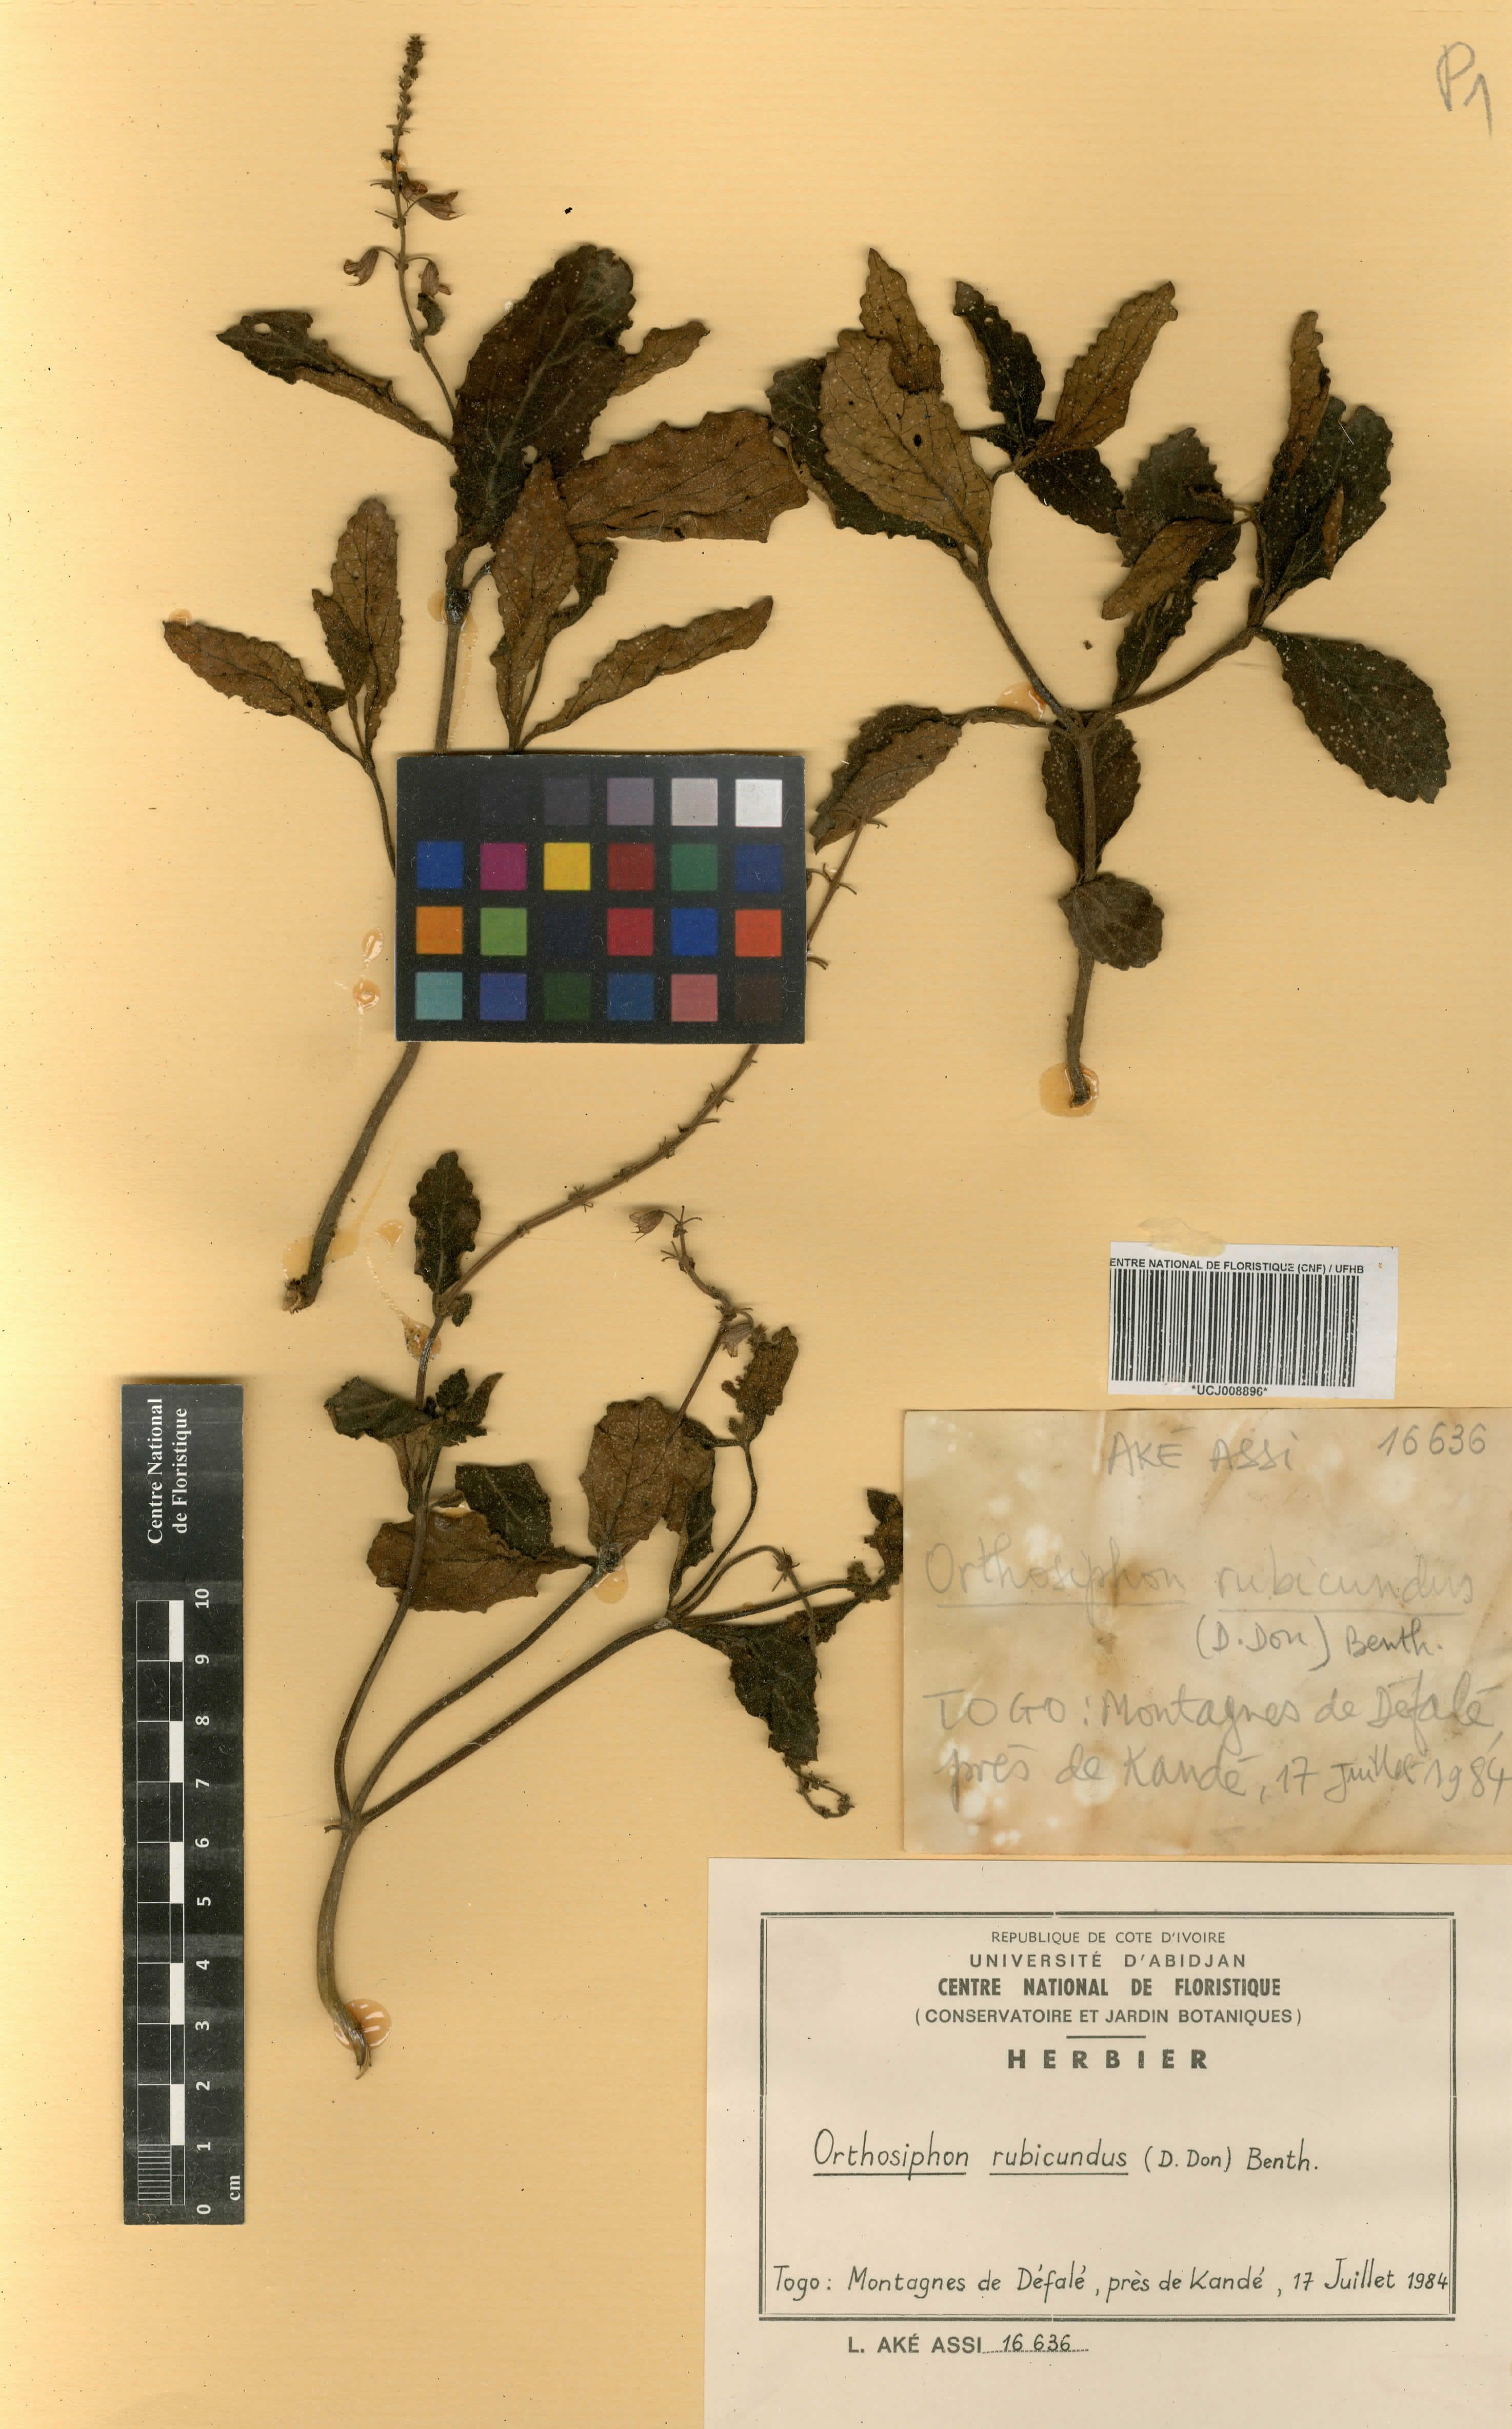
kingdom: Plantae
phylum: Tracheophyta
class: Magnoliopsida
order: Lamiales
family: Lamiaceae
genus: Orthosiphon
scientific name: Orthosiphon rubicundus
